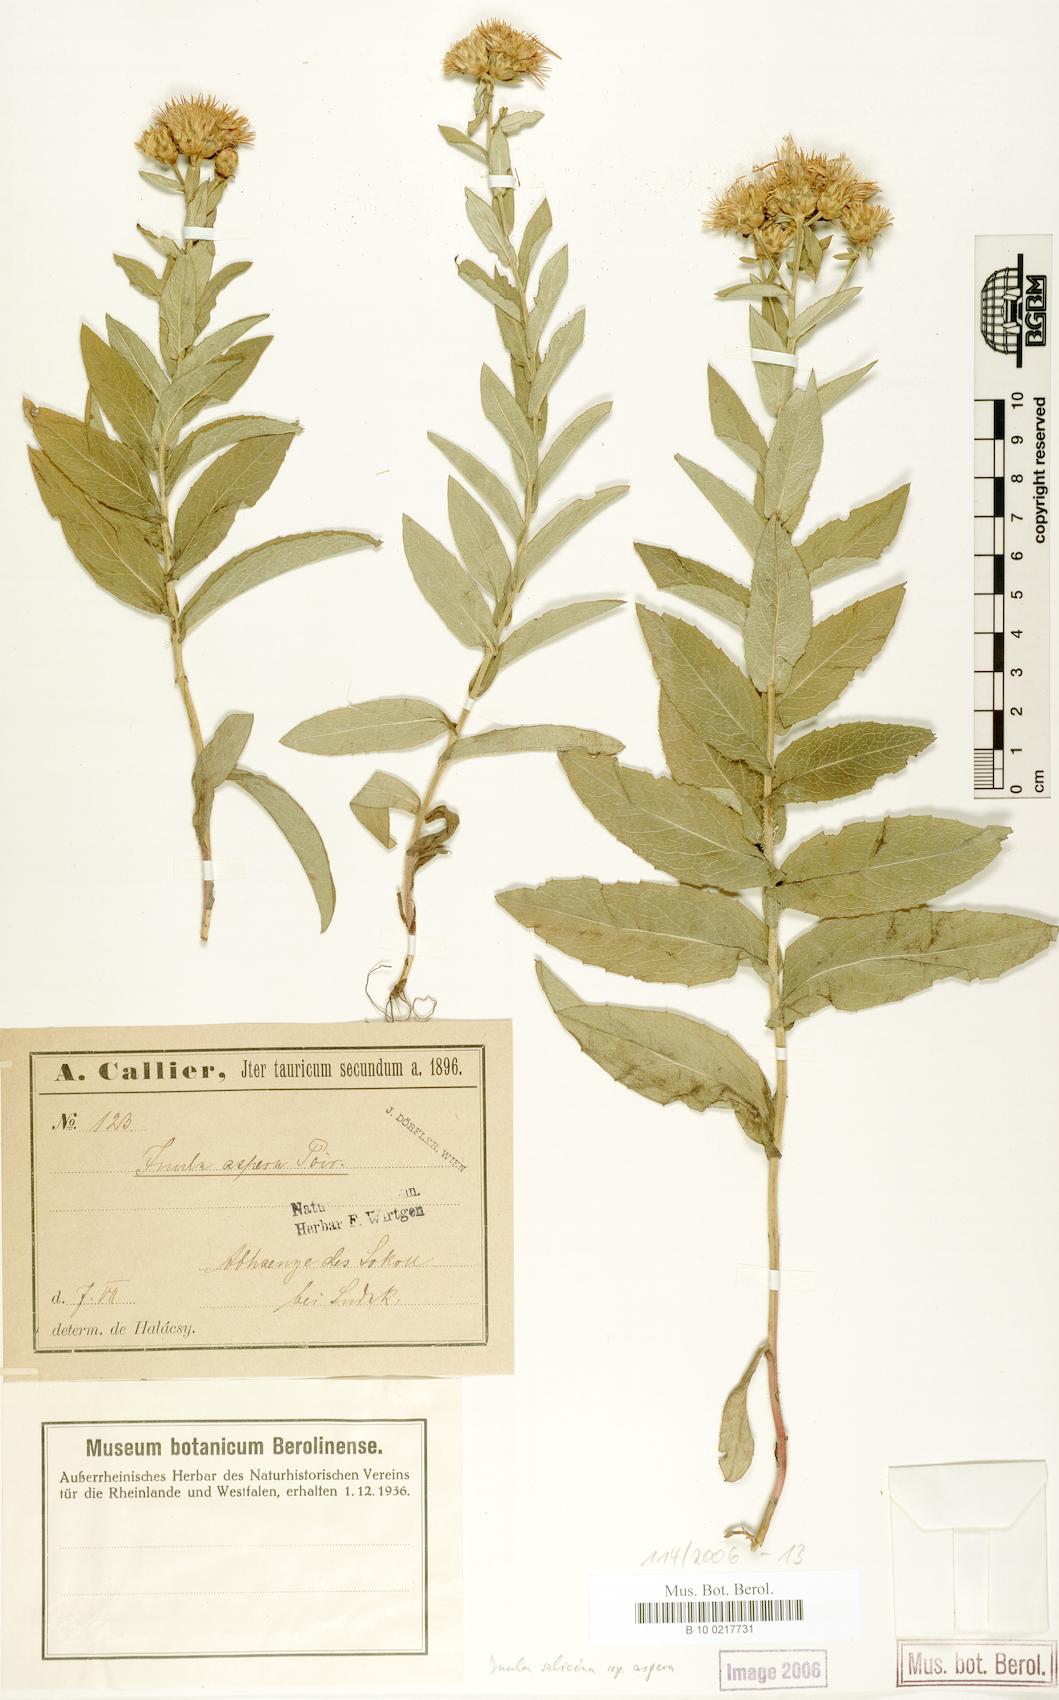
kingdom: Plantae
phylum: Tracheophyta
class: Magnoliopsida
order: Asterales
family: Asteraceae
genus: Pentanema
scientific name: Pentanema salicinum
